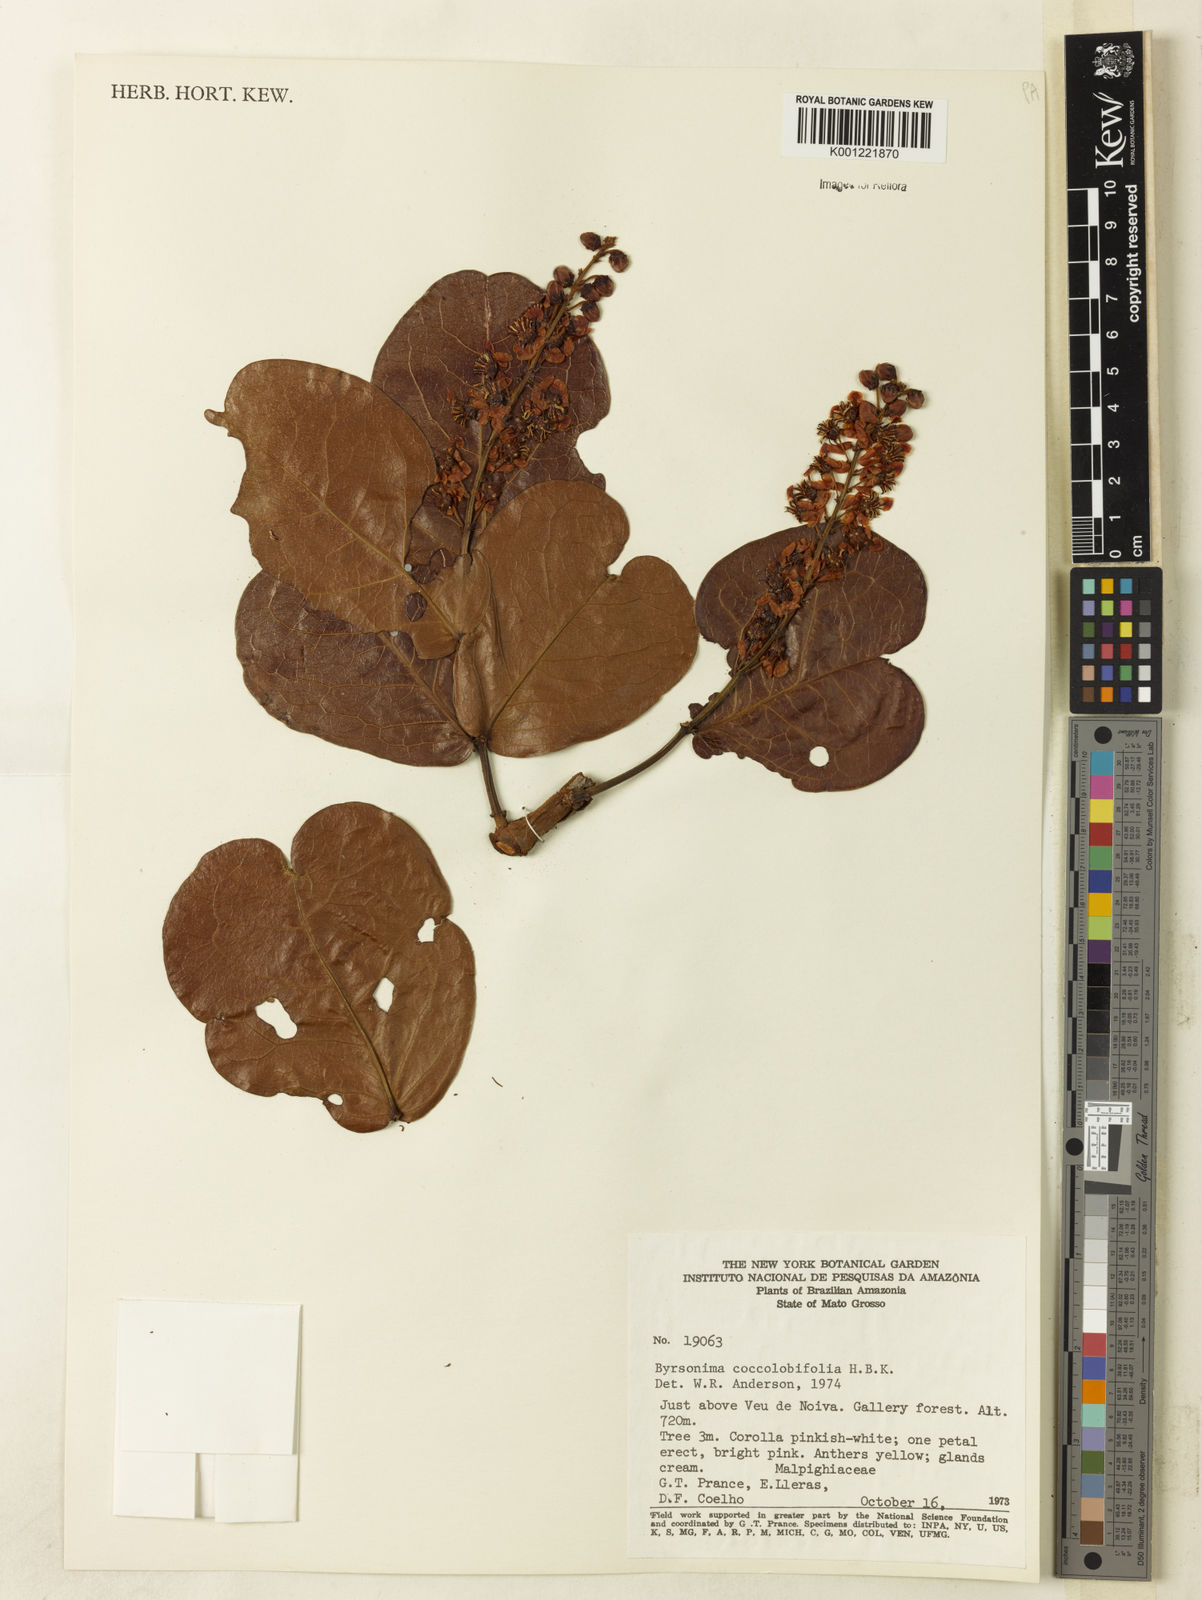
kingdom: Plantae
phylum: Tracheophyta
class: Magnoliopsida
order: Malpighiales
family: Malpighiaceae
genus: Byrsonima
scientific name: Byrsonima coccolobifolia
